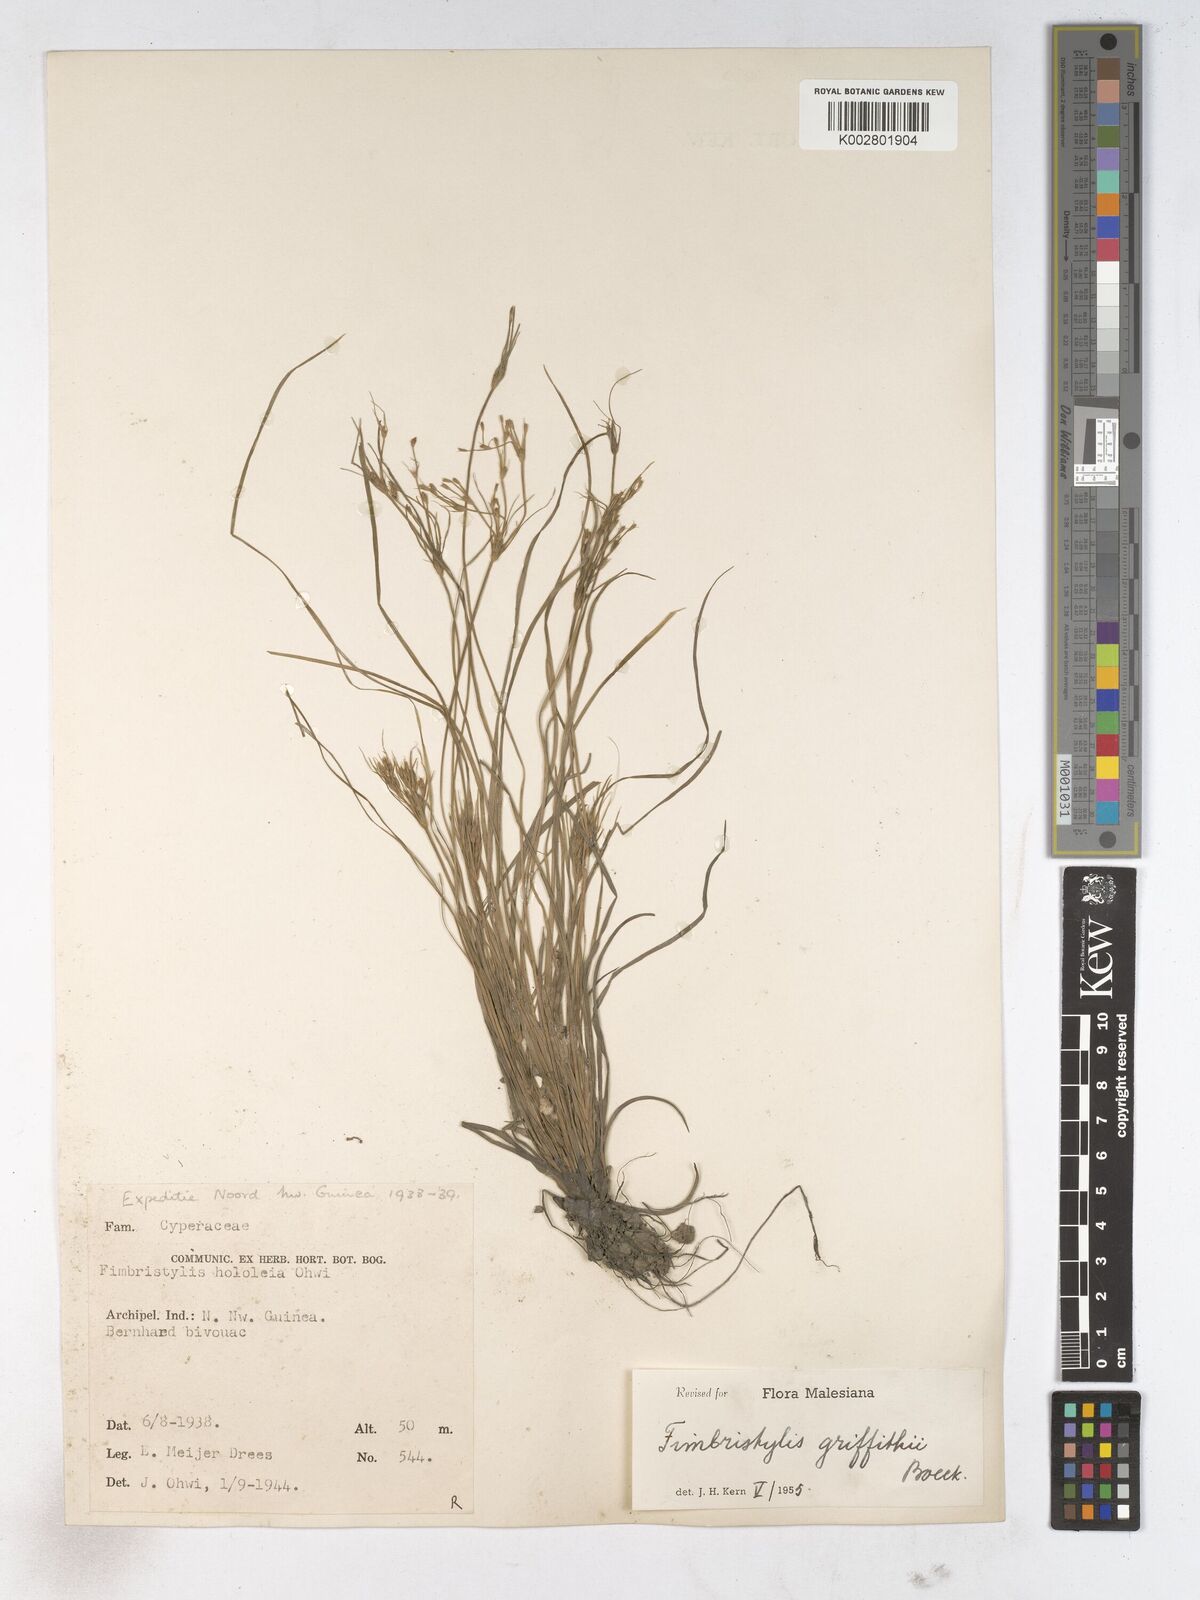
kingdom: Plantae
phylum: Tracheophyta
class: Liliopsida
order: Poales
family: Cyperaceae
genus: Fimbristylis
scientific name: Fimbristylis griffithii
